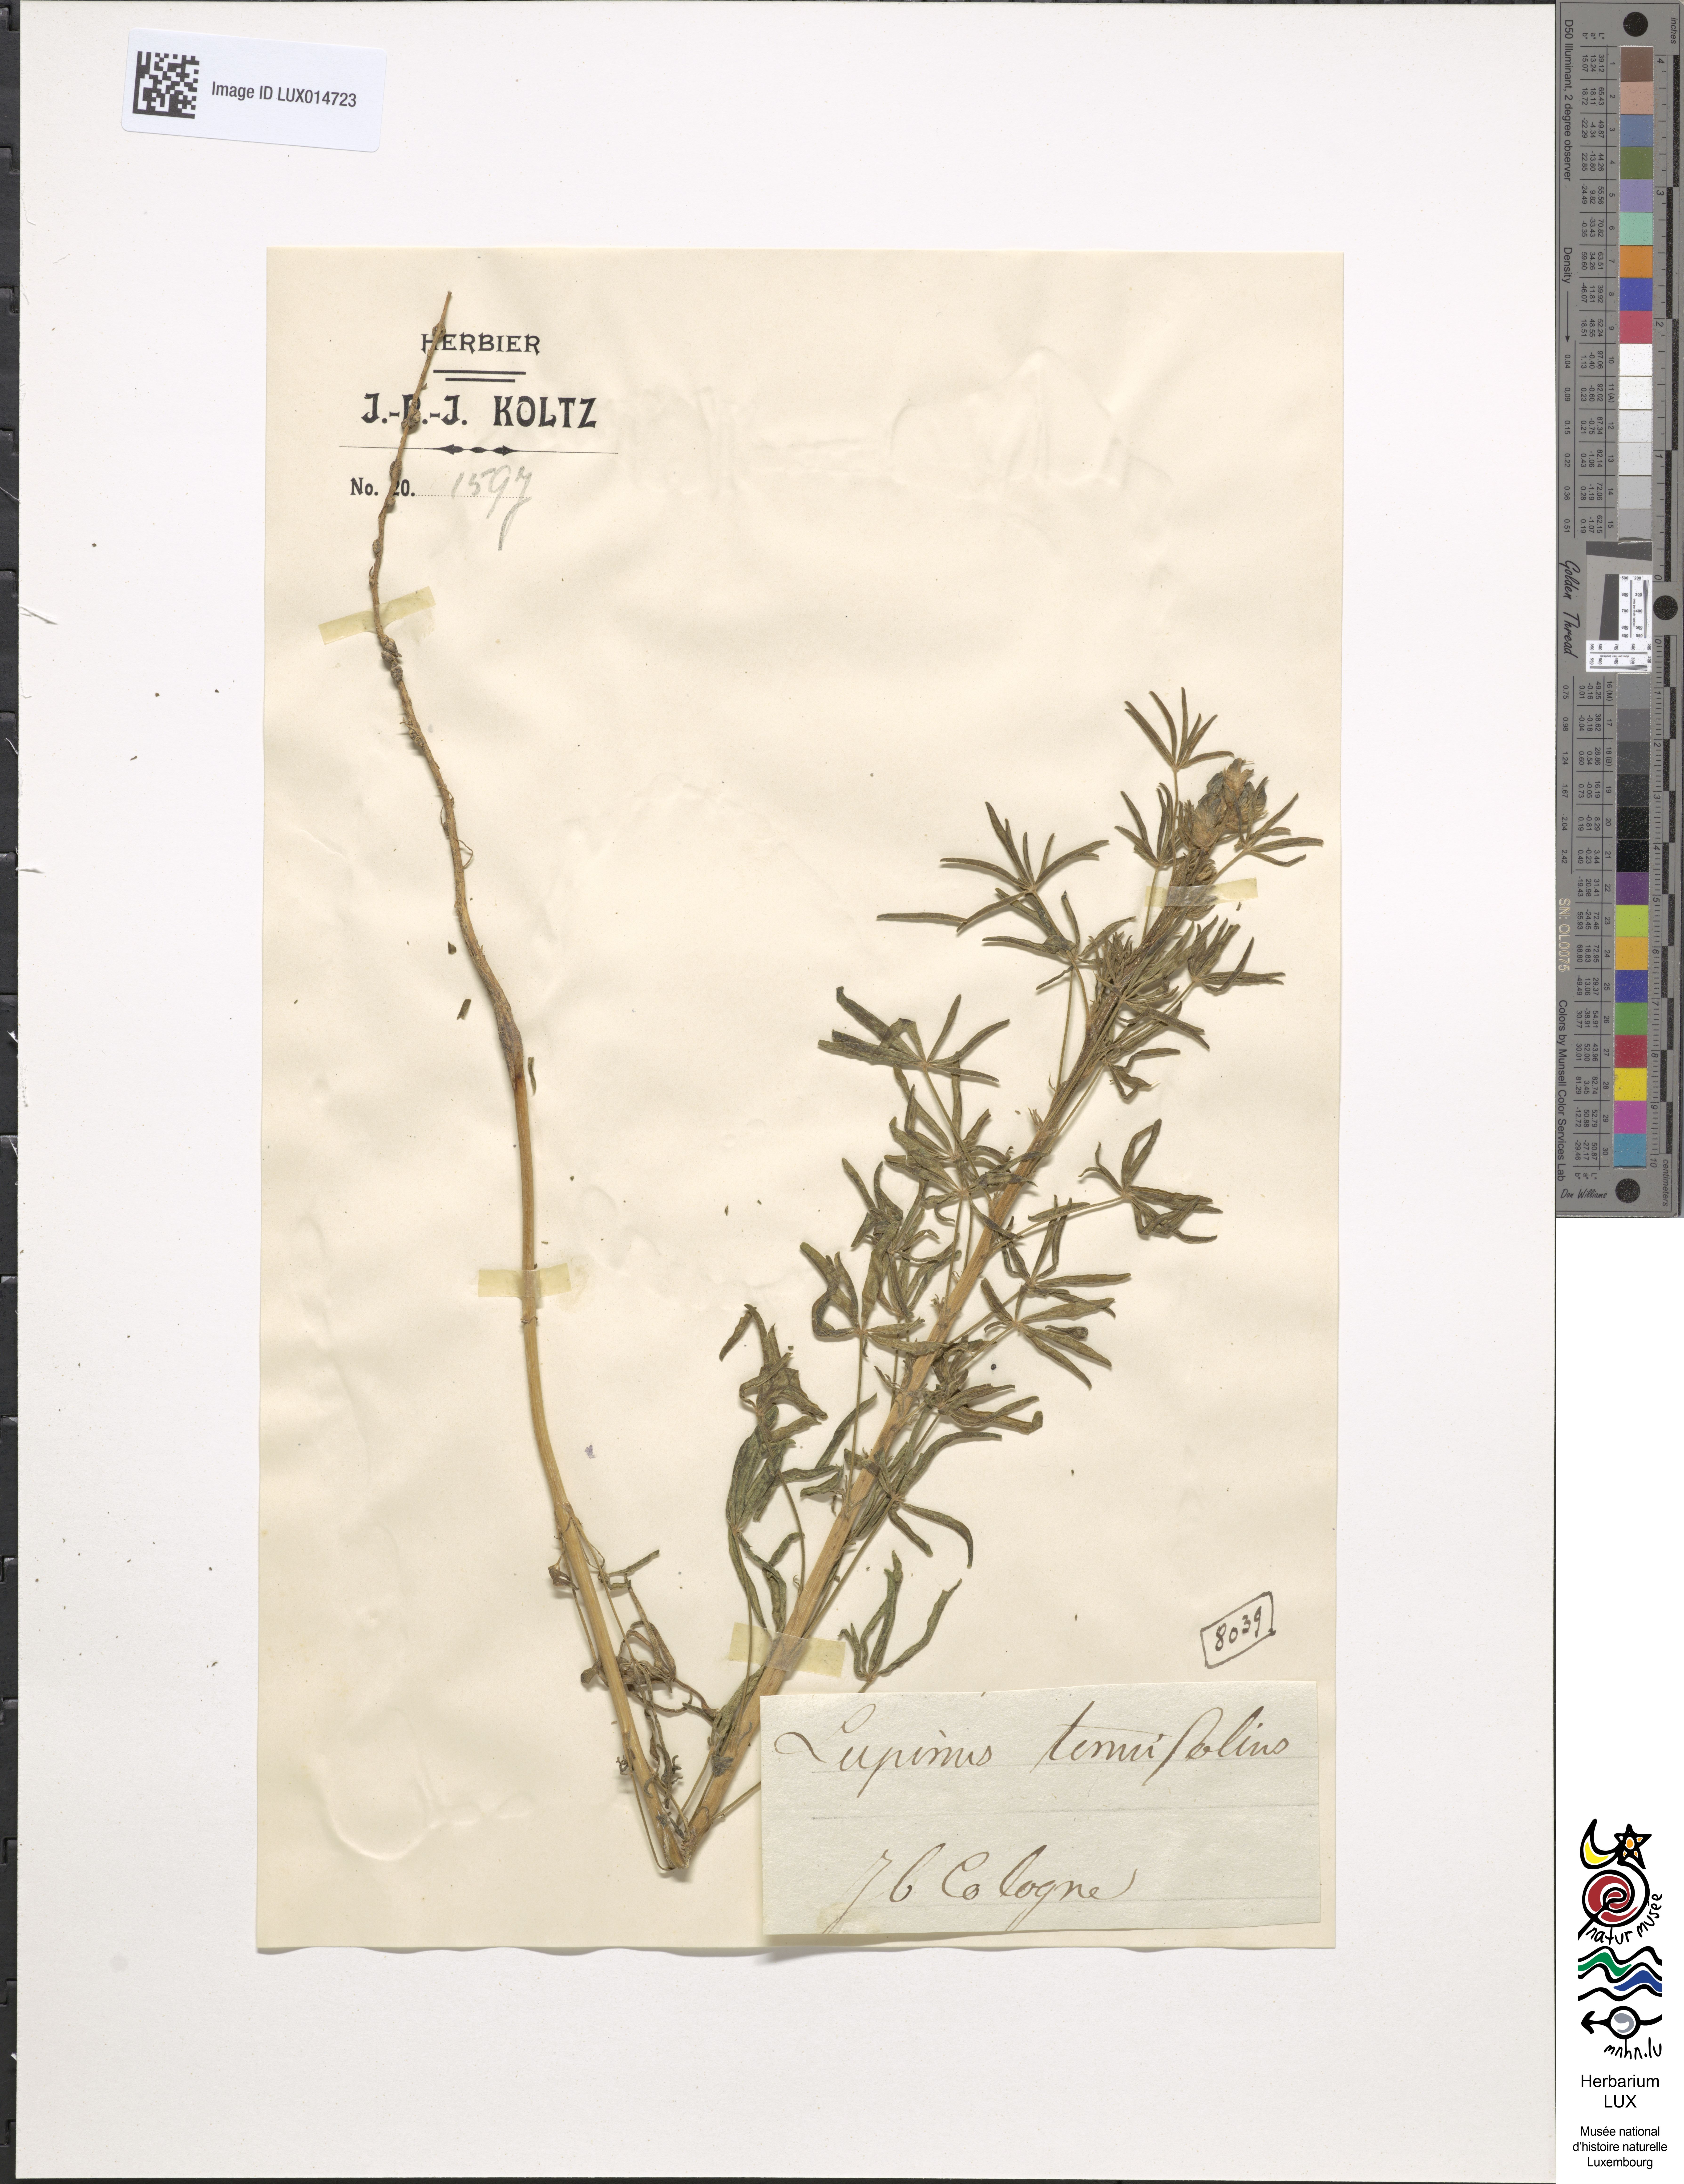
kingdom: Plantae
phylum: Tracheophyta
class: Magnoliopsida
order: Fabales
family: Fabaceae
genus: Lupinus
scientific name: Lupinus bracteolaris
